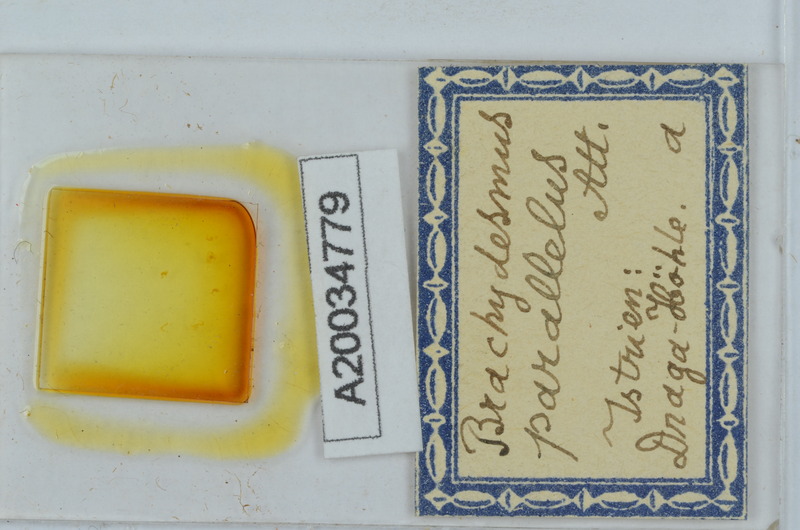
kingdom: Animalia
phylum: Arthropoda
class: Diplopoda
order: Polydesmida
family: Polydesmidae
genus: Brachydesmus
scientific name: Brachydesmus parallelus
